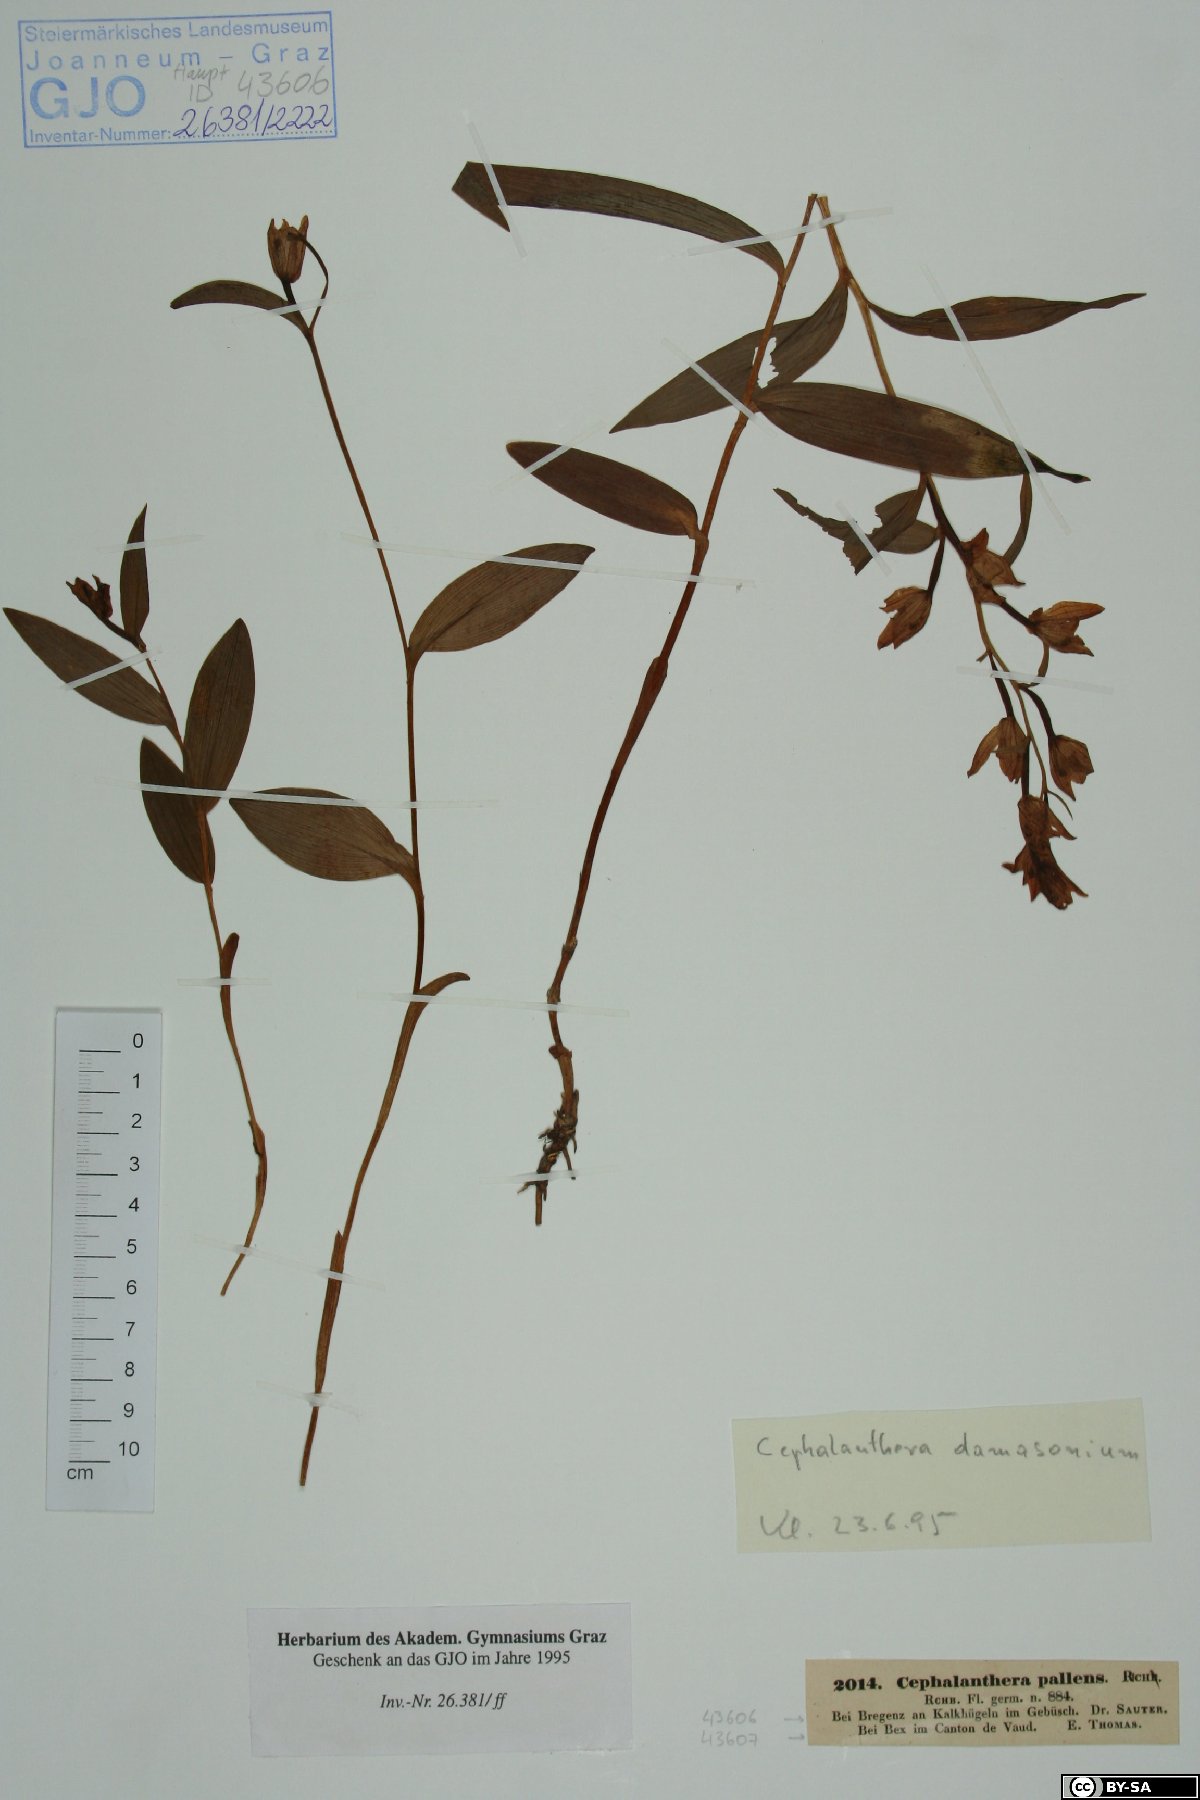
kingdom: Plantae
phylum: Tracheophyta
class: Liliopsida
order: Asparagales
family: Orchidaceae
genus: Cephalanthera
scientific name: Cephalanthera damasonium
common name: White helleborine
